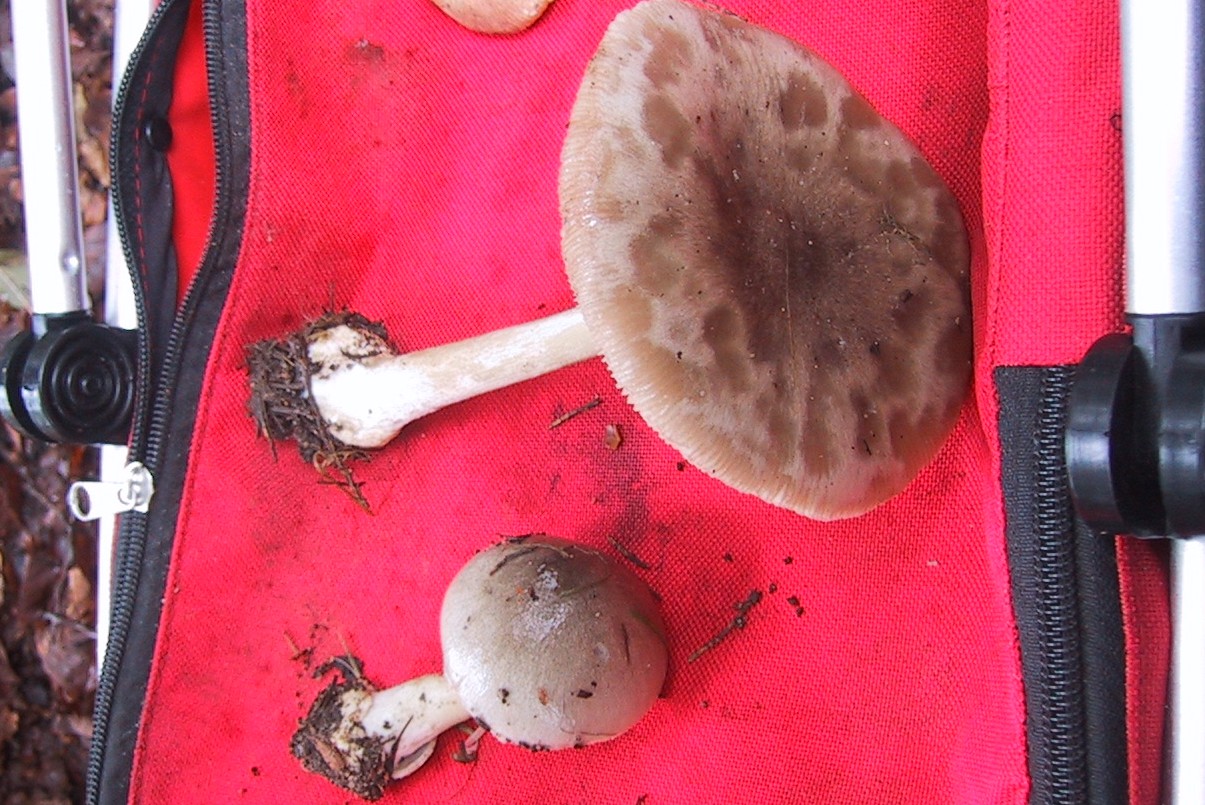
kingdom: Fungi
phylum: Basidiomycota
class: Agaricomycetes
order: Agaricales
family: Pluteaceae
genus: Volvopluteus
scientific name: Volvopluteus gloiocephalus
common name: høj posesvamp
